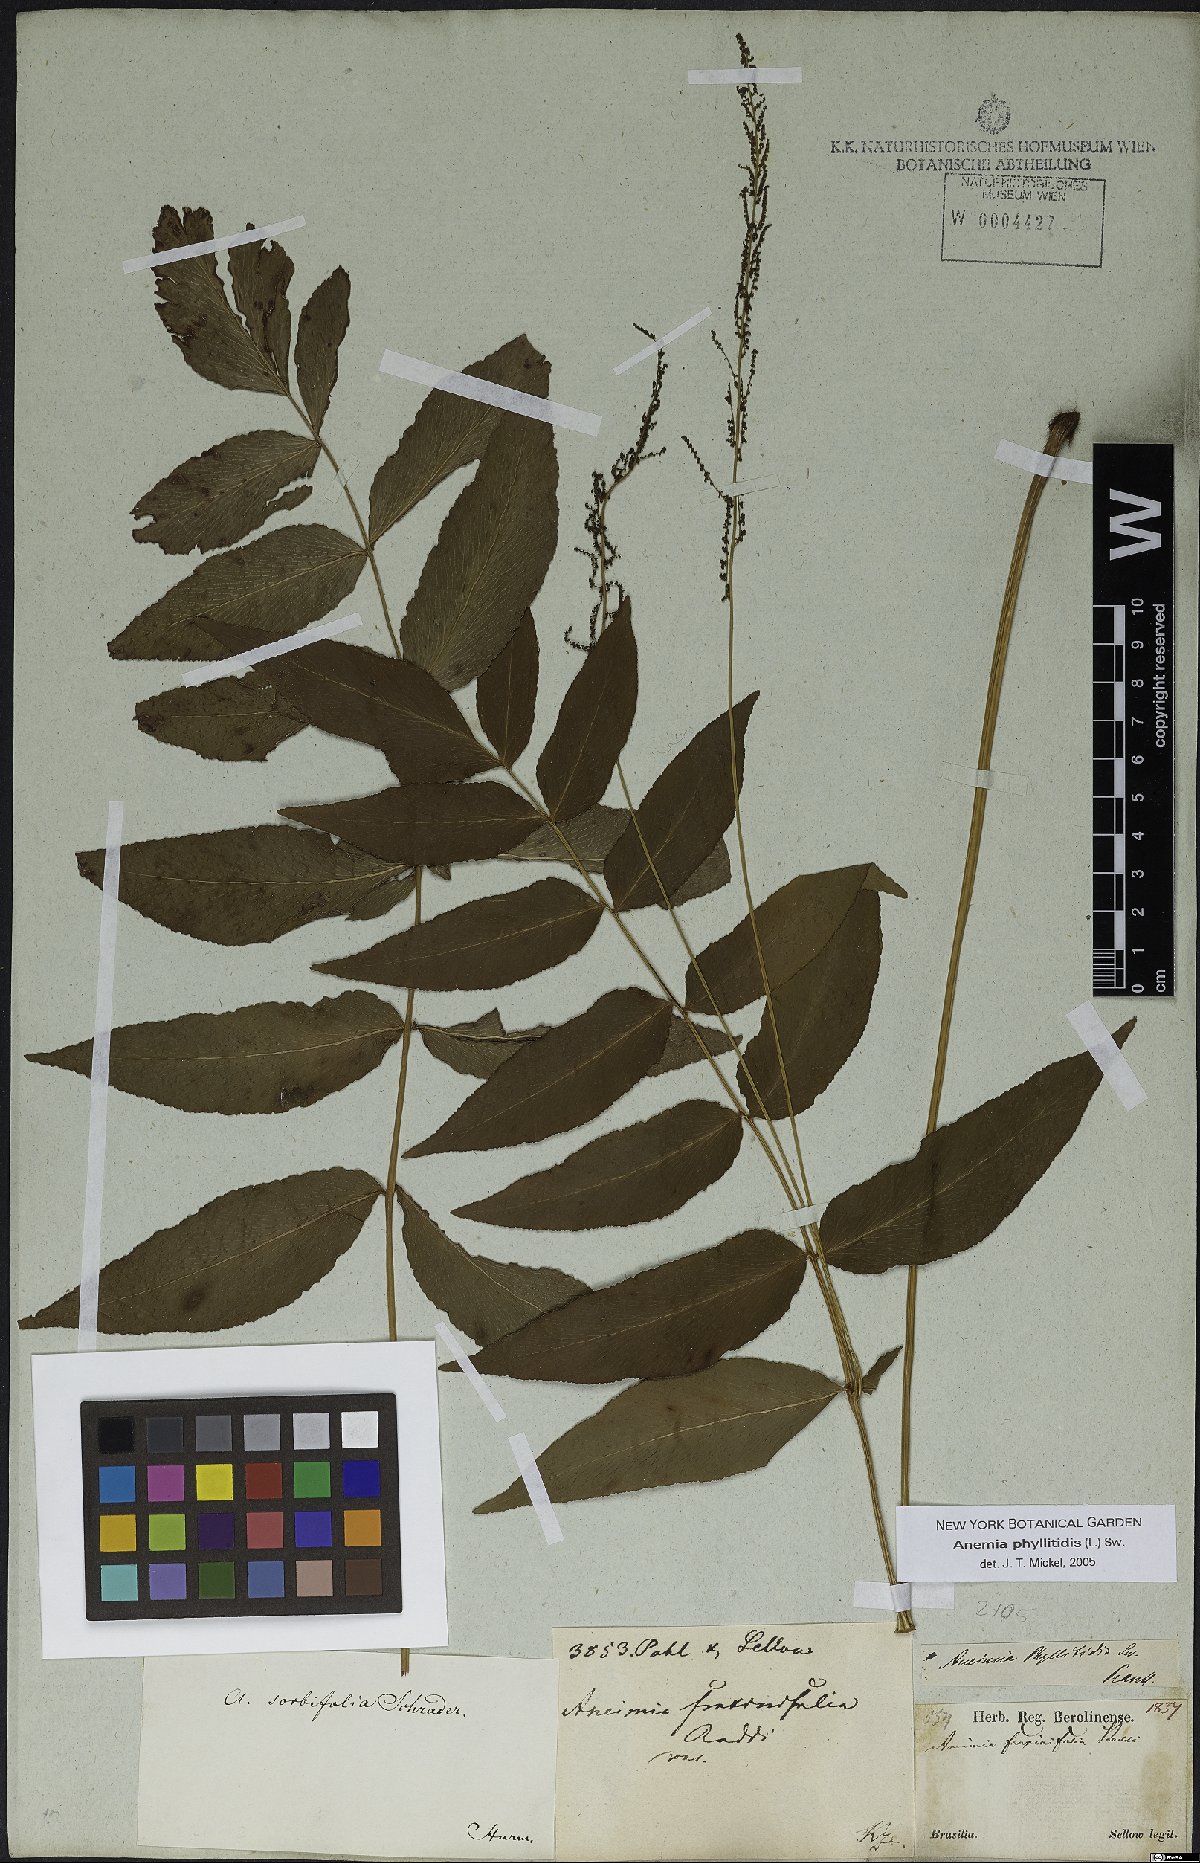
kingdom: Plantae
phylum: Tracheophyta
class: Polypodiopsida
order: Schizaeales
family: Anemiaceae
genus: Anemia
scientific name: Anemia phyllitidis
